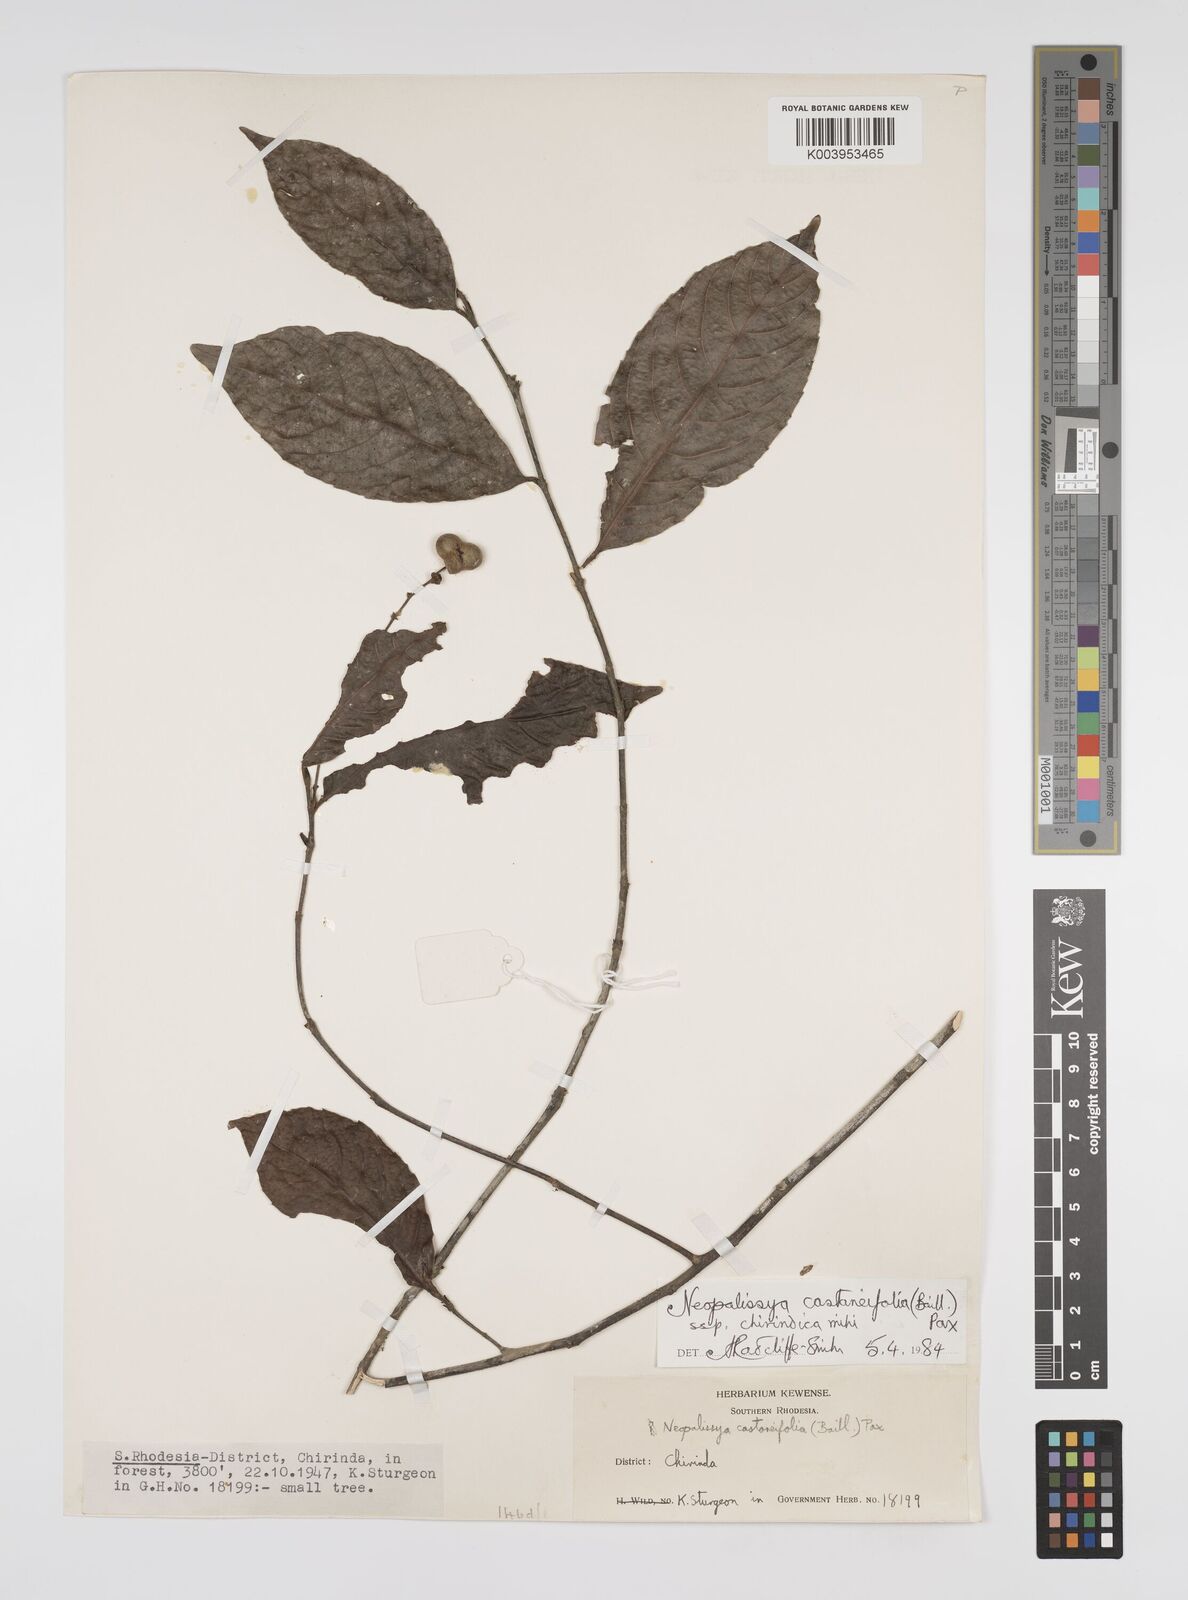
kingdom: Plantae
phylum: Tracheophyta
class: Magnoliopsida
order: Malpighiales
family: Euphorbiaceae
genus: Necepsia
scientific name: Necepsia castaneifolia
